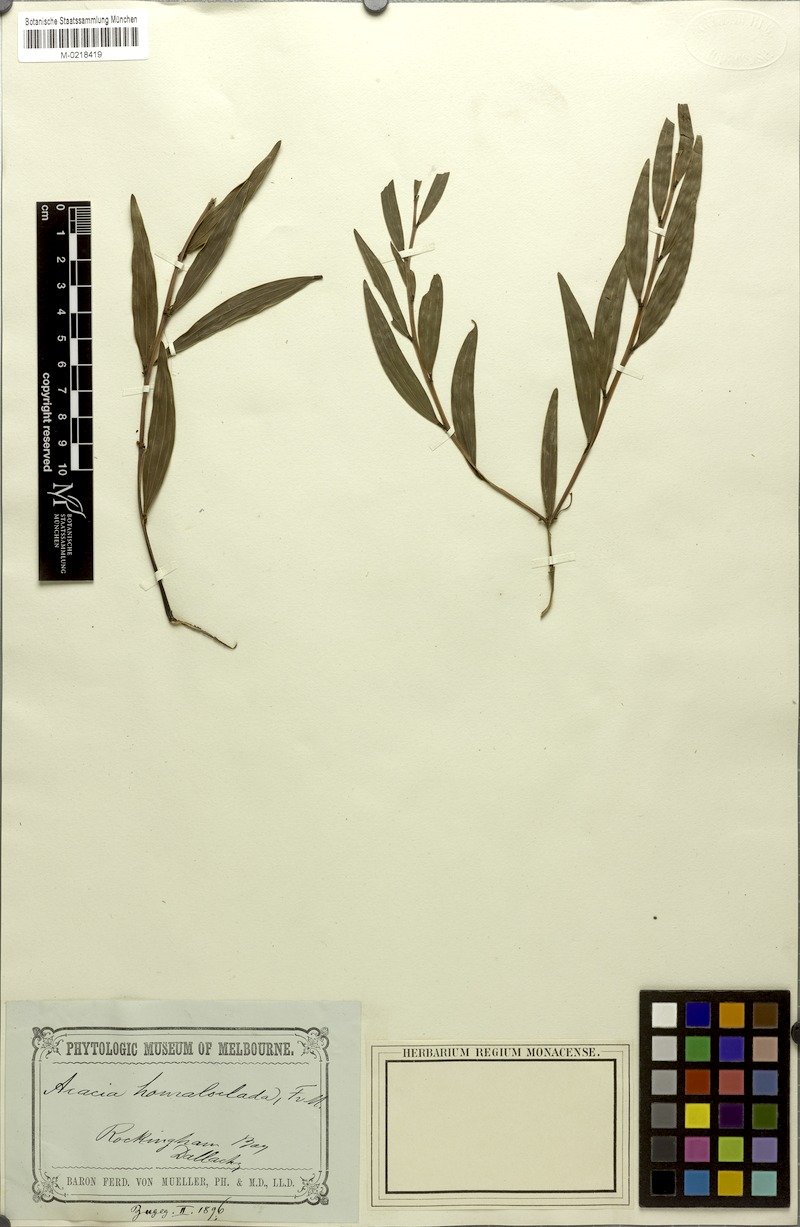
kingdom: Plantae
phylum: Tracheophyta
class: Magnoliopsida
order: Fabales
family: Fabaceae
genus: Acacia
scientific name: Acacia homaloclada
